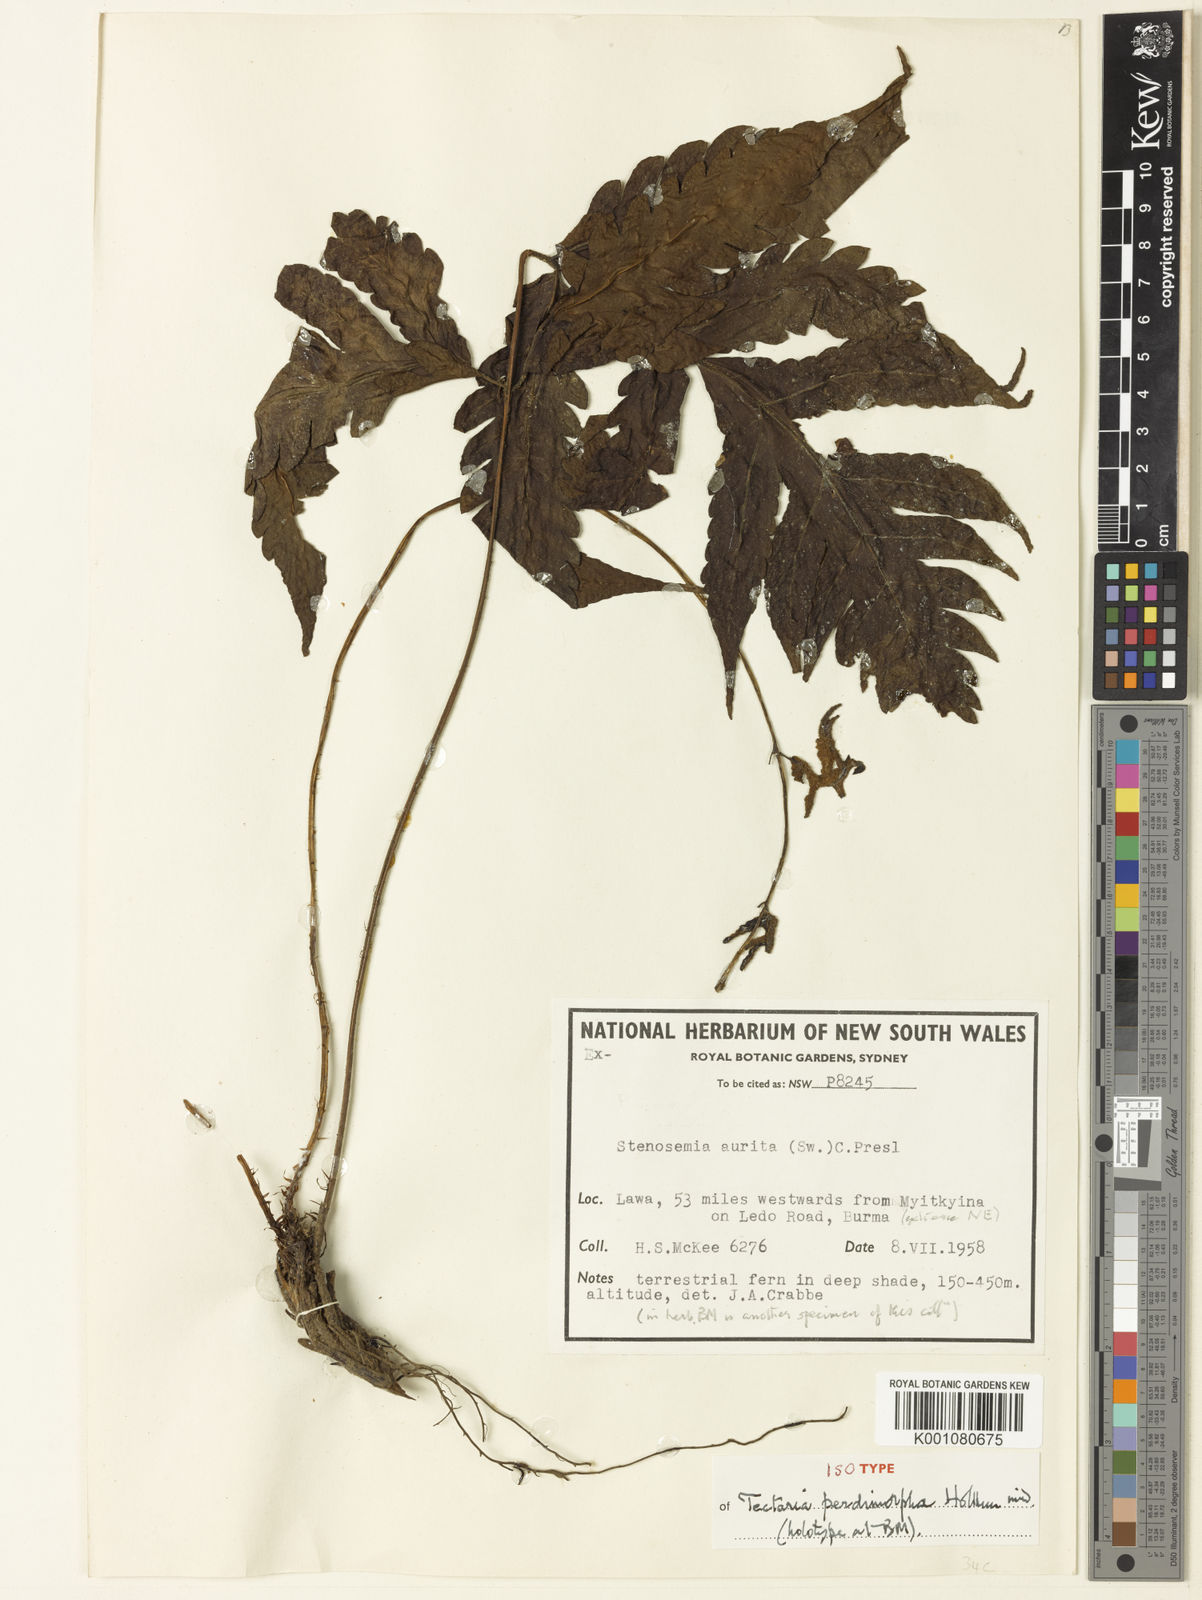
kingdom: Plantae
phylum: Tracheophyta
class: Polypodiopsida
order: Polypodiales
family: Tectariaceae
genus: Tectaria
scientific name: Tectaria perdimorpha
